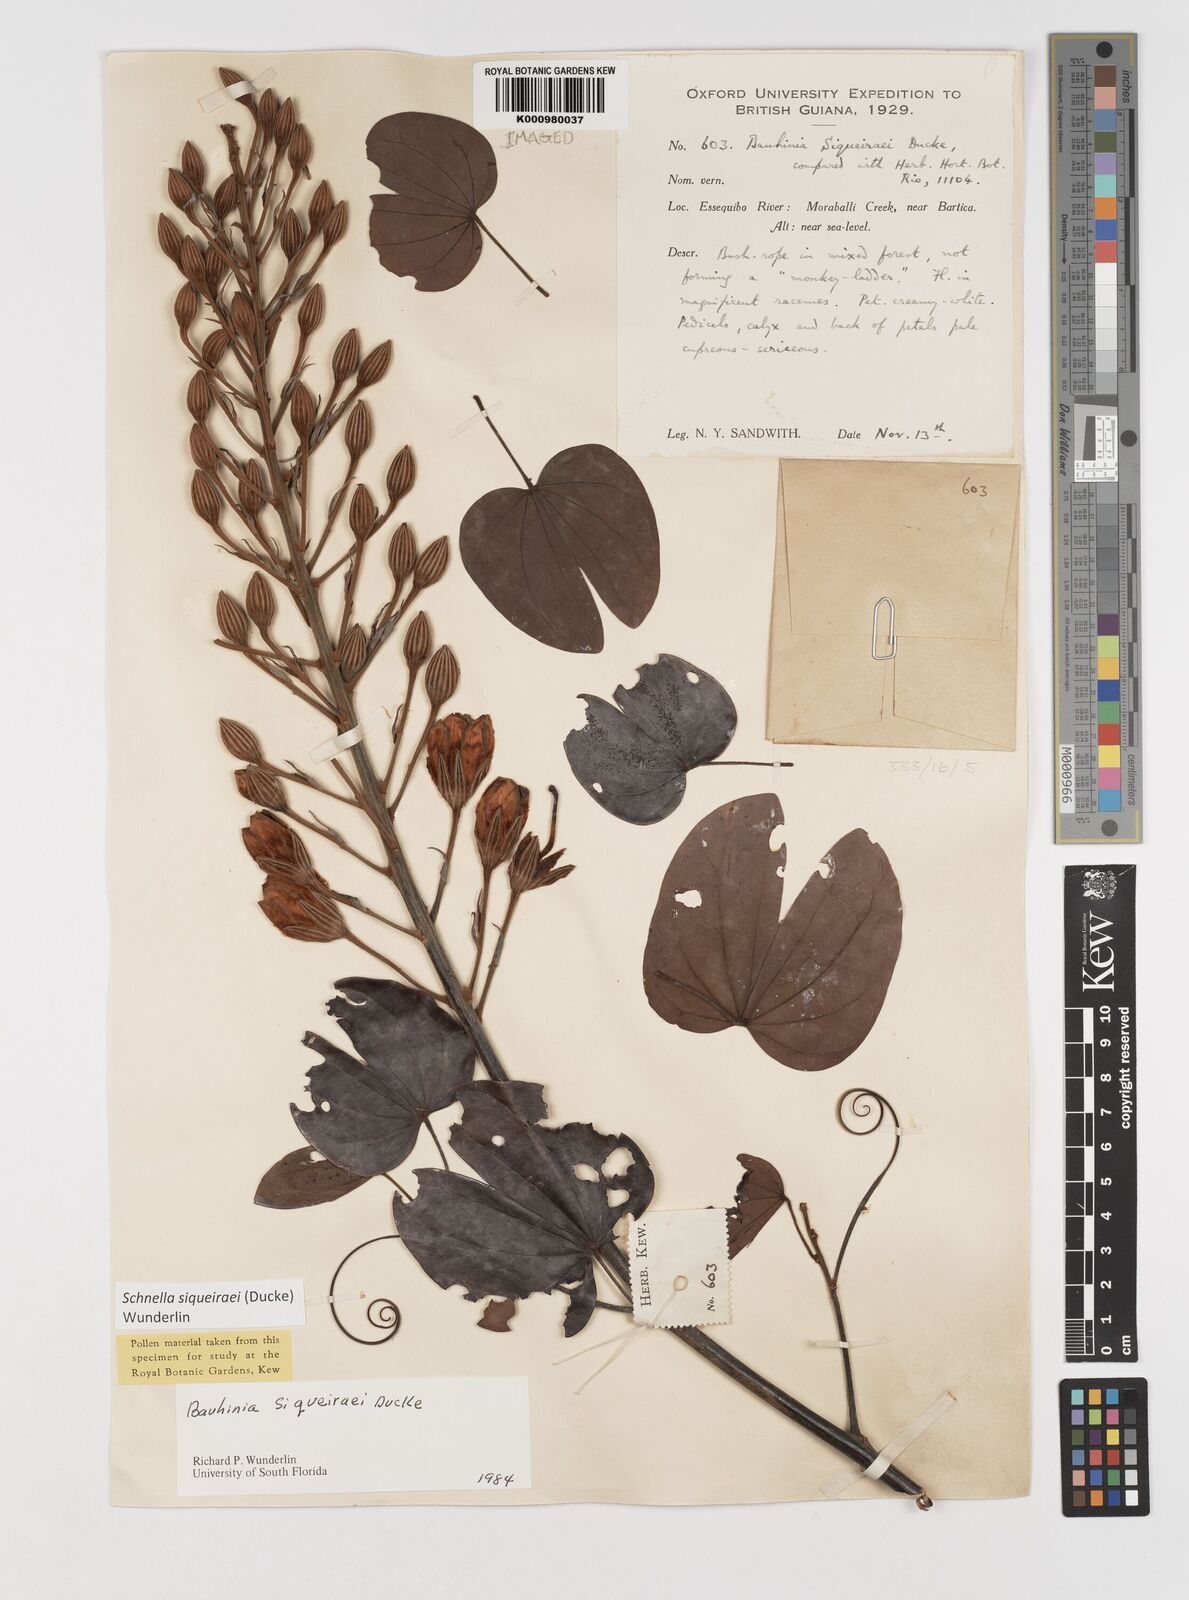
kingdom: Plantae
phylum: Tracheophyta
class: Magnoliopsida
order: Fabales
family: Fabaceae
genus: Schnella
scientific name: Schnella
